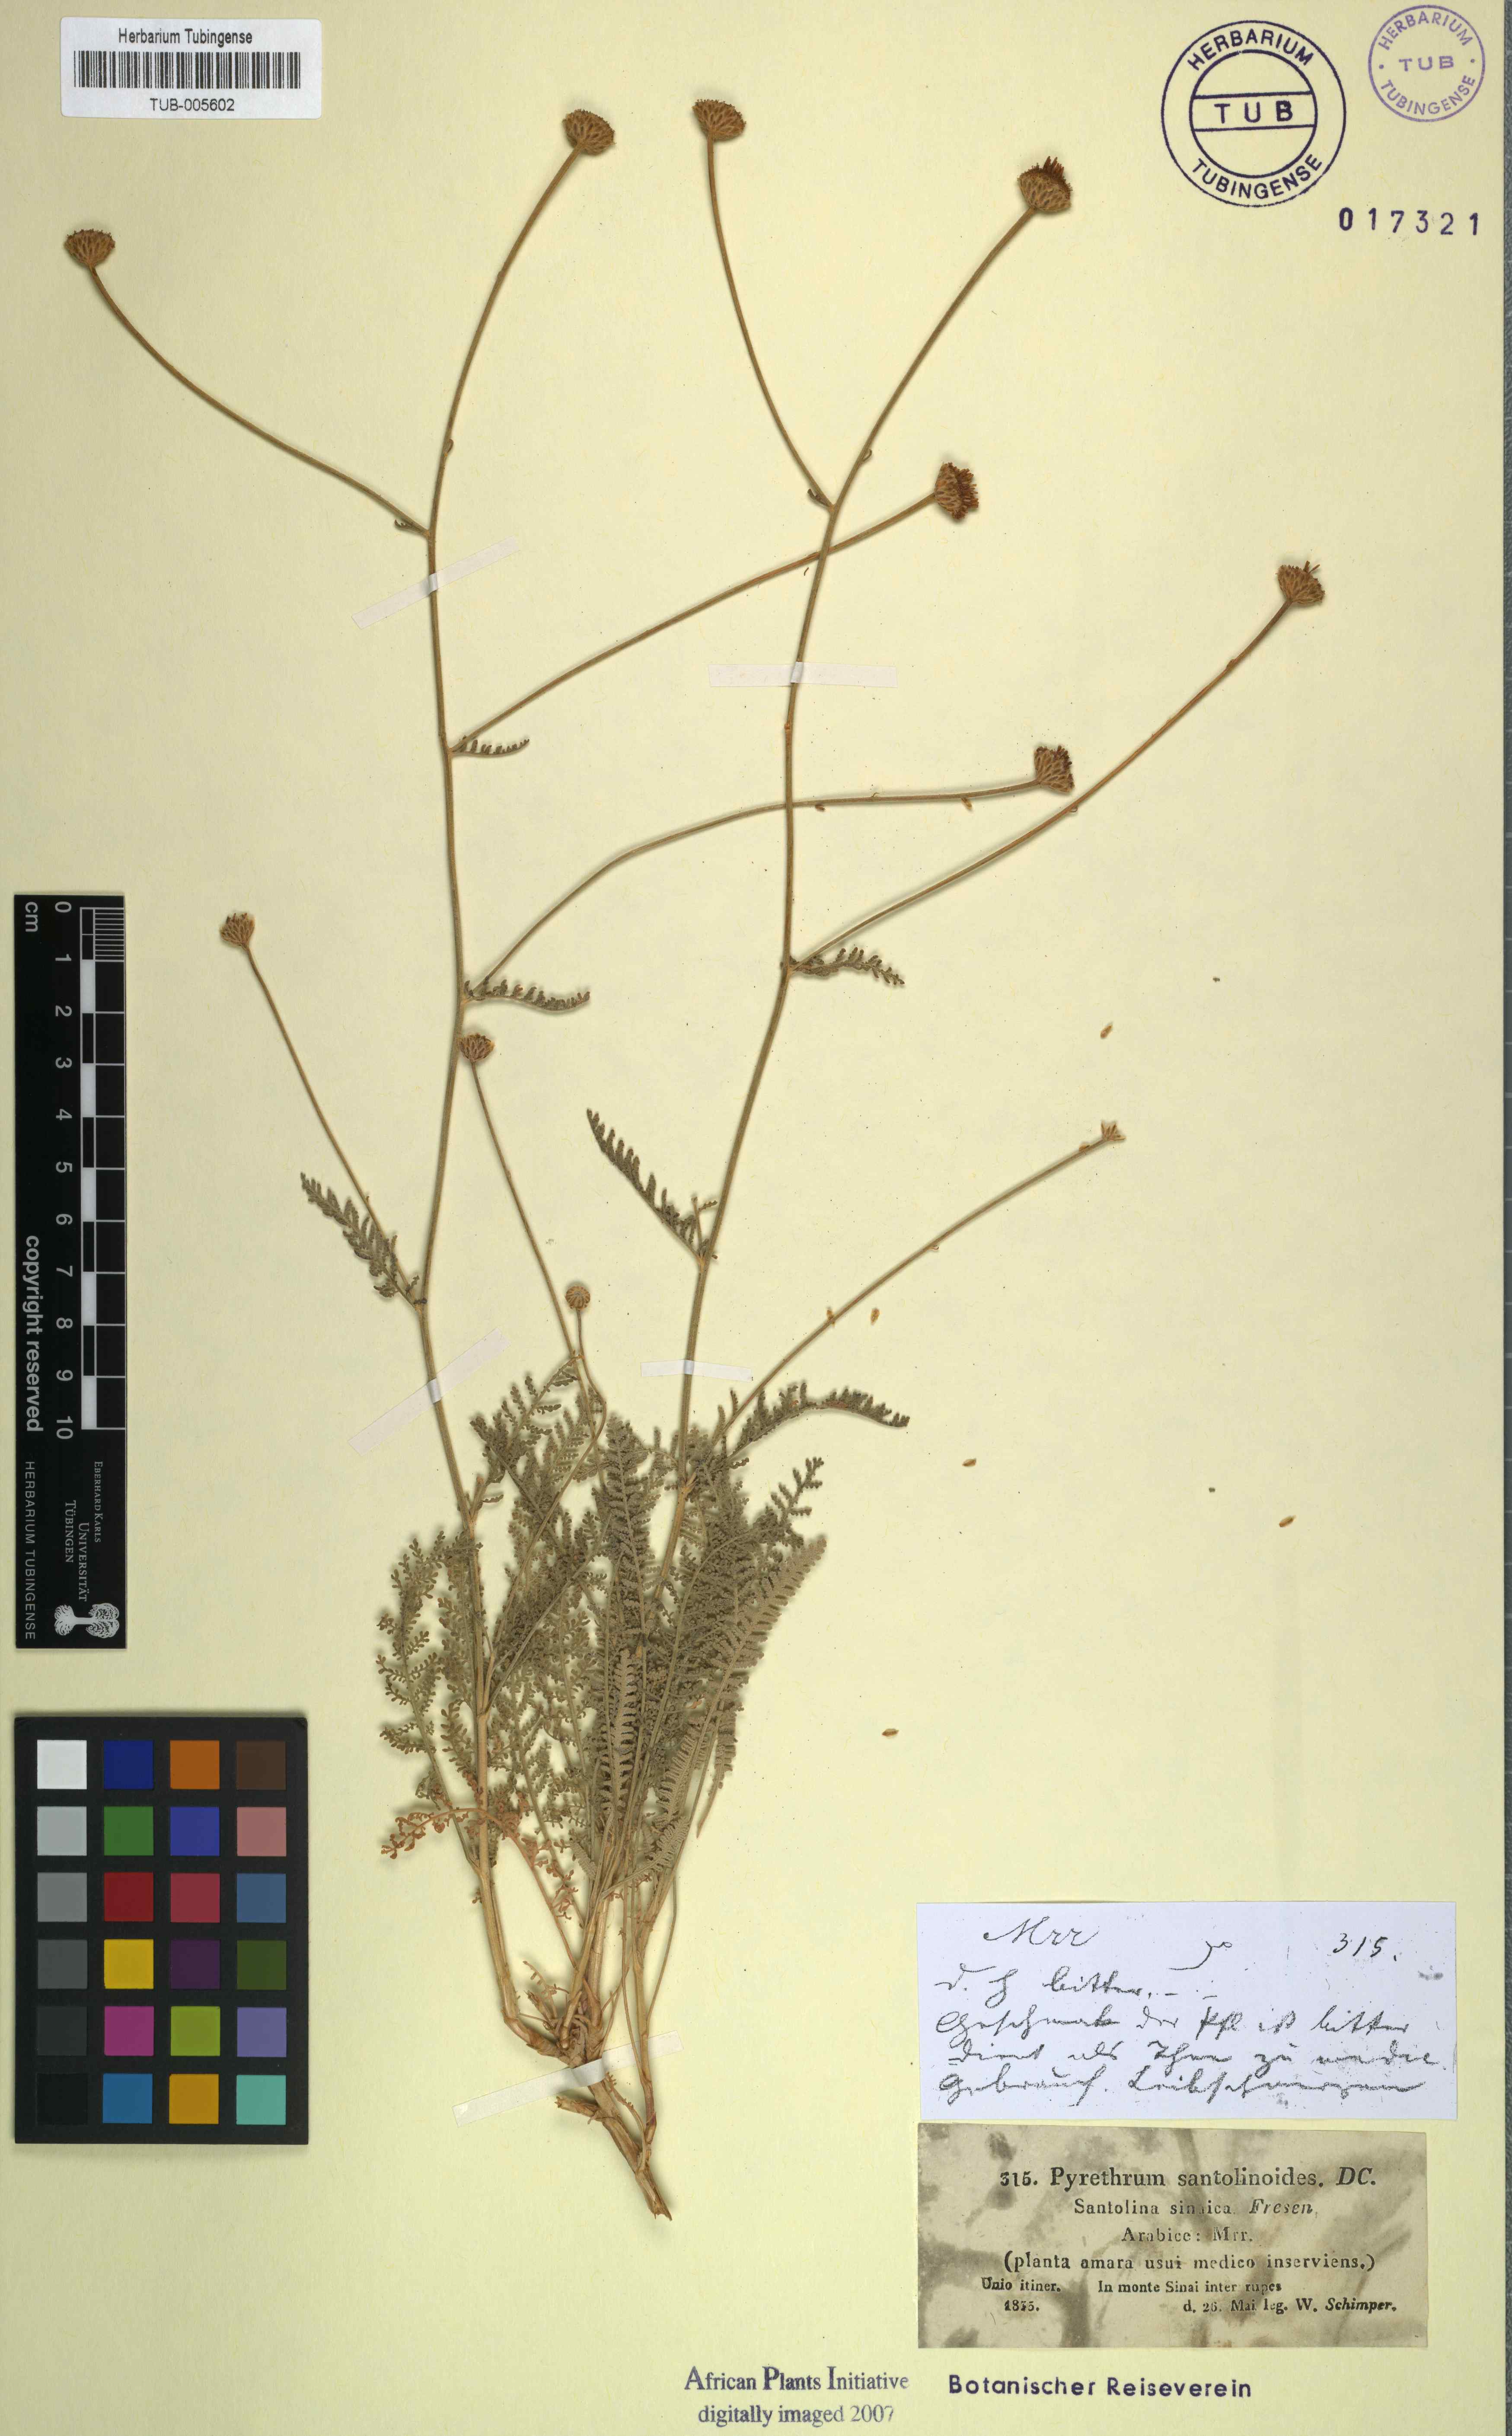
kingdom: Plantae
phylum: Tracheophyta
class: Magnoliopsida
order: Asterales
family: Asteraceae
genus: Tanacetum
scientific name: Tanacetum sinaicum
